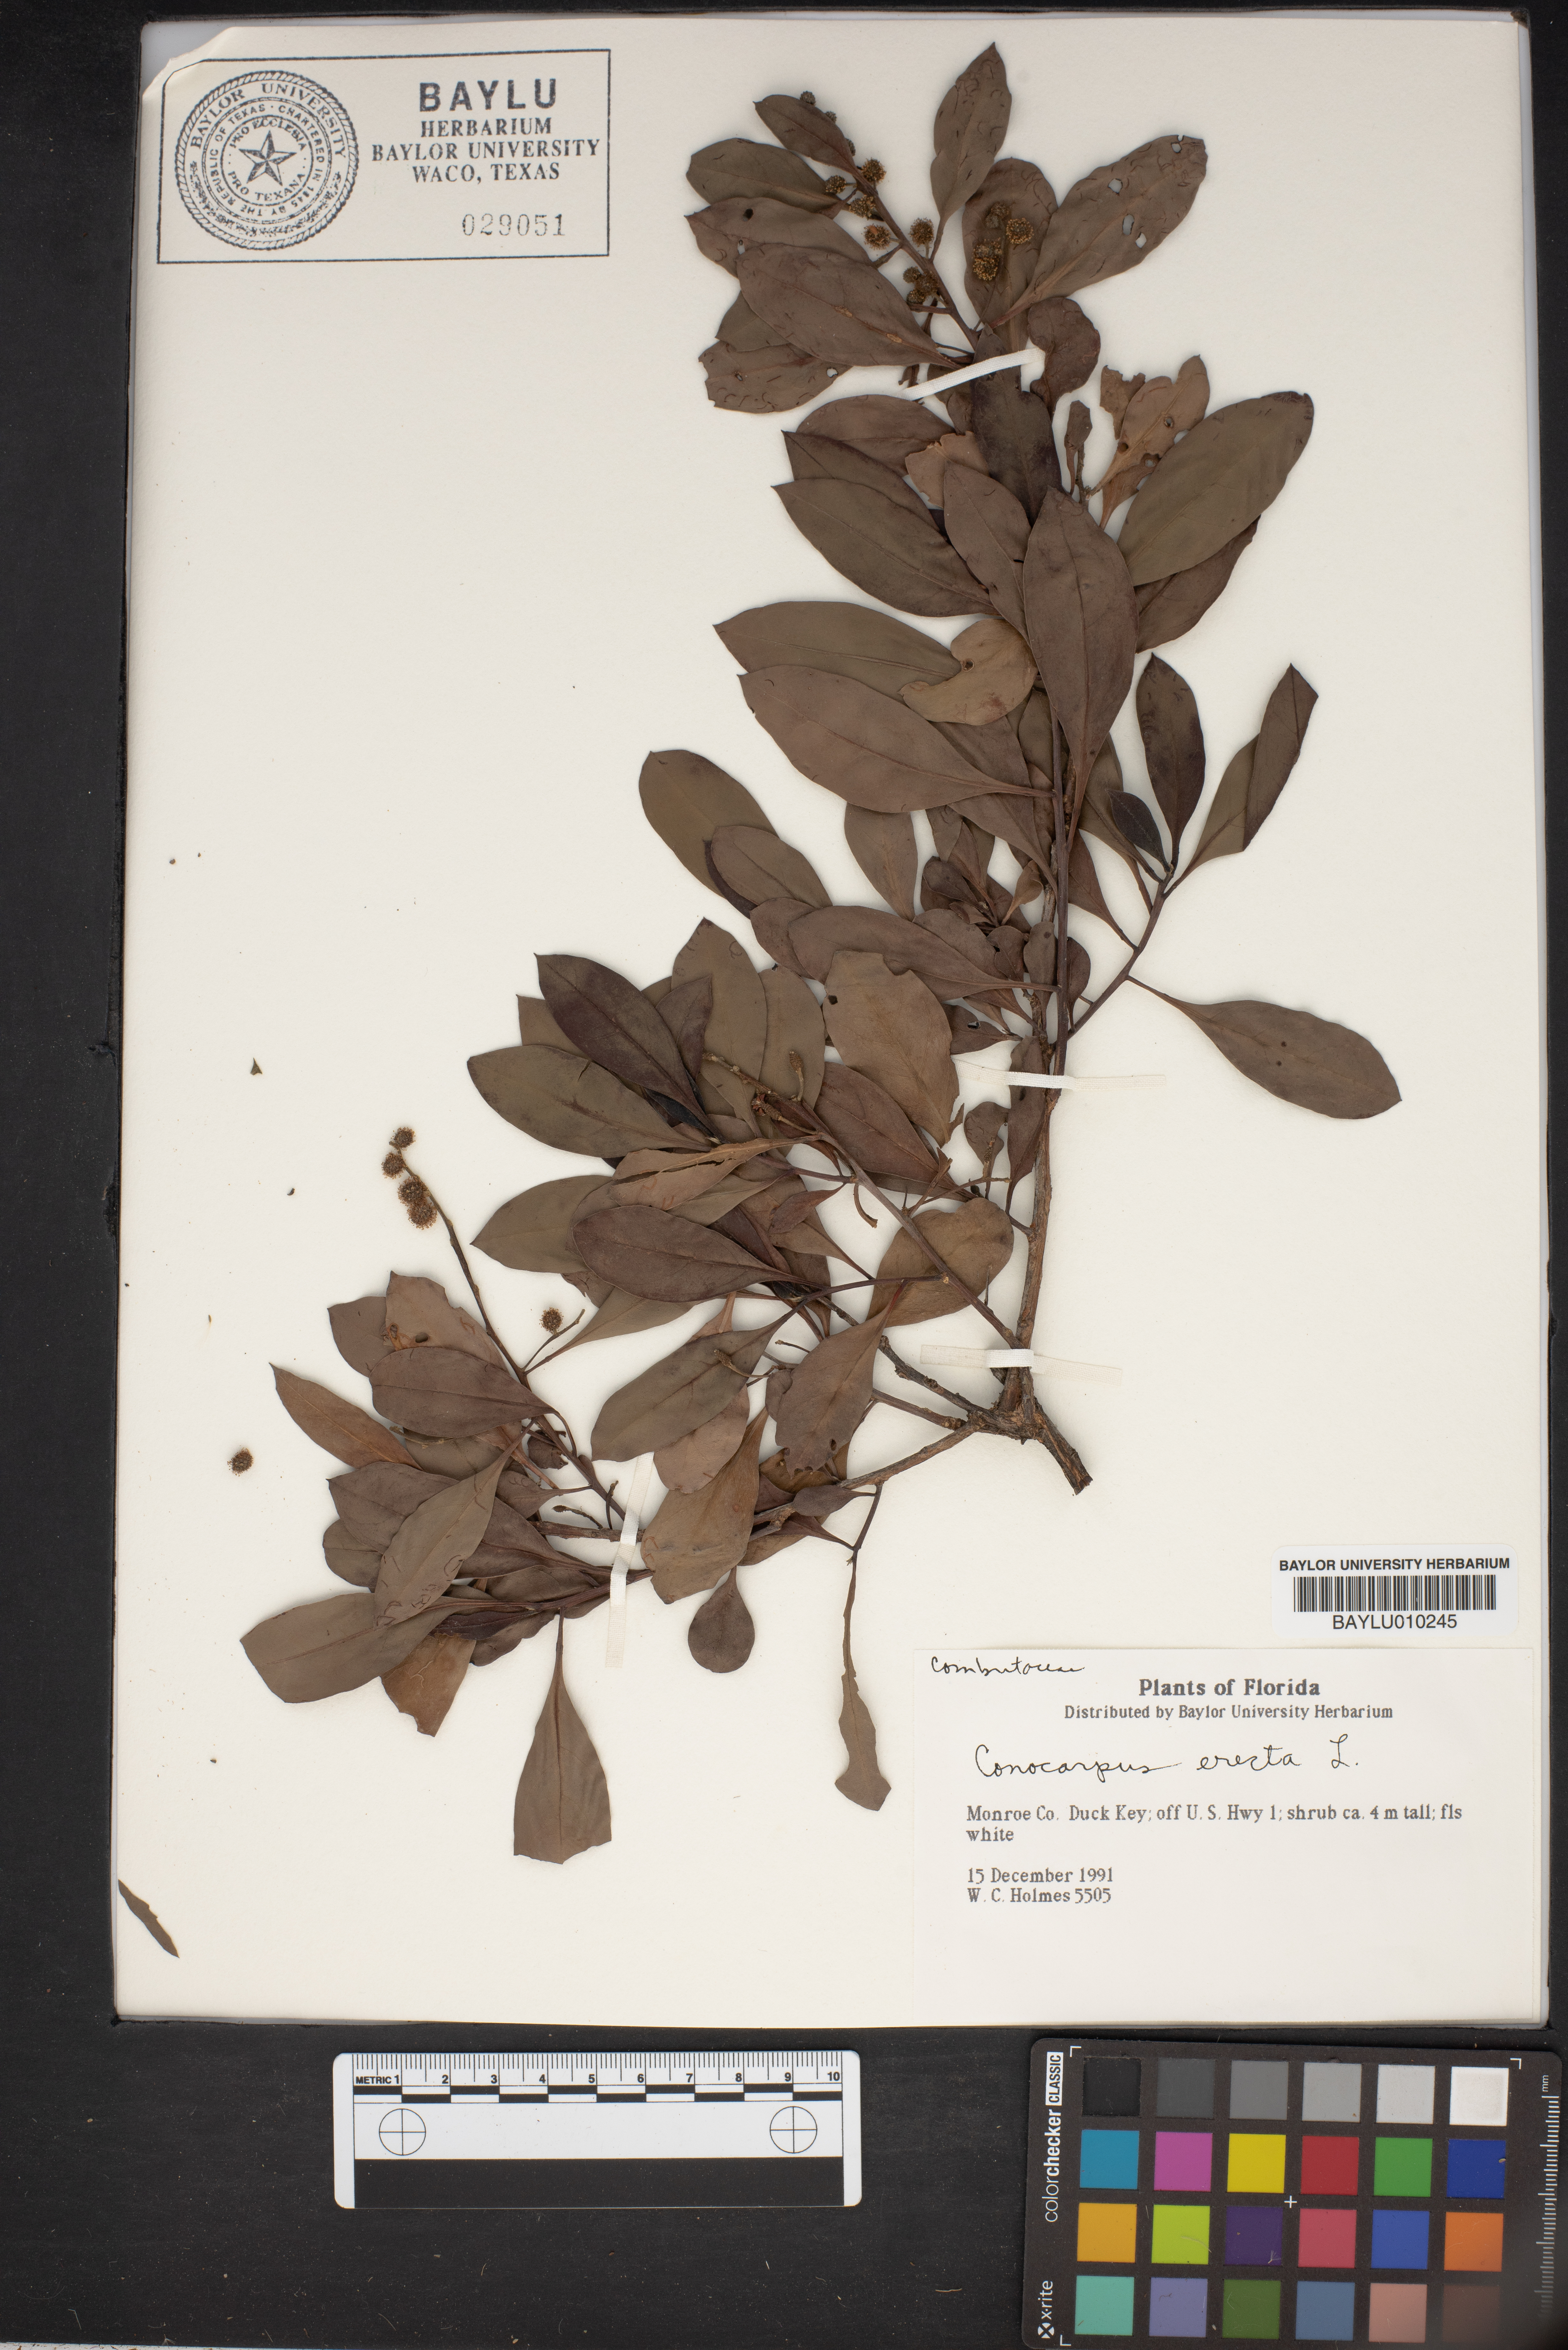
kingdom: Plantae
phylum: Tracheophyta
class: Magnoliopsida
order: Myrtales
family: Combretaceae
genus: Conocarpus
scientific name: Conocarpus erectus
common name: Button mangrove
